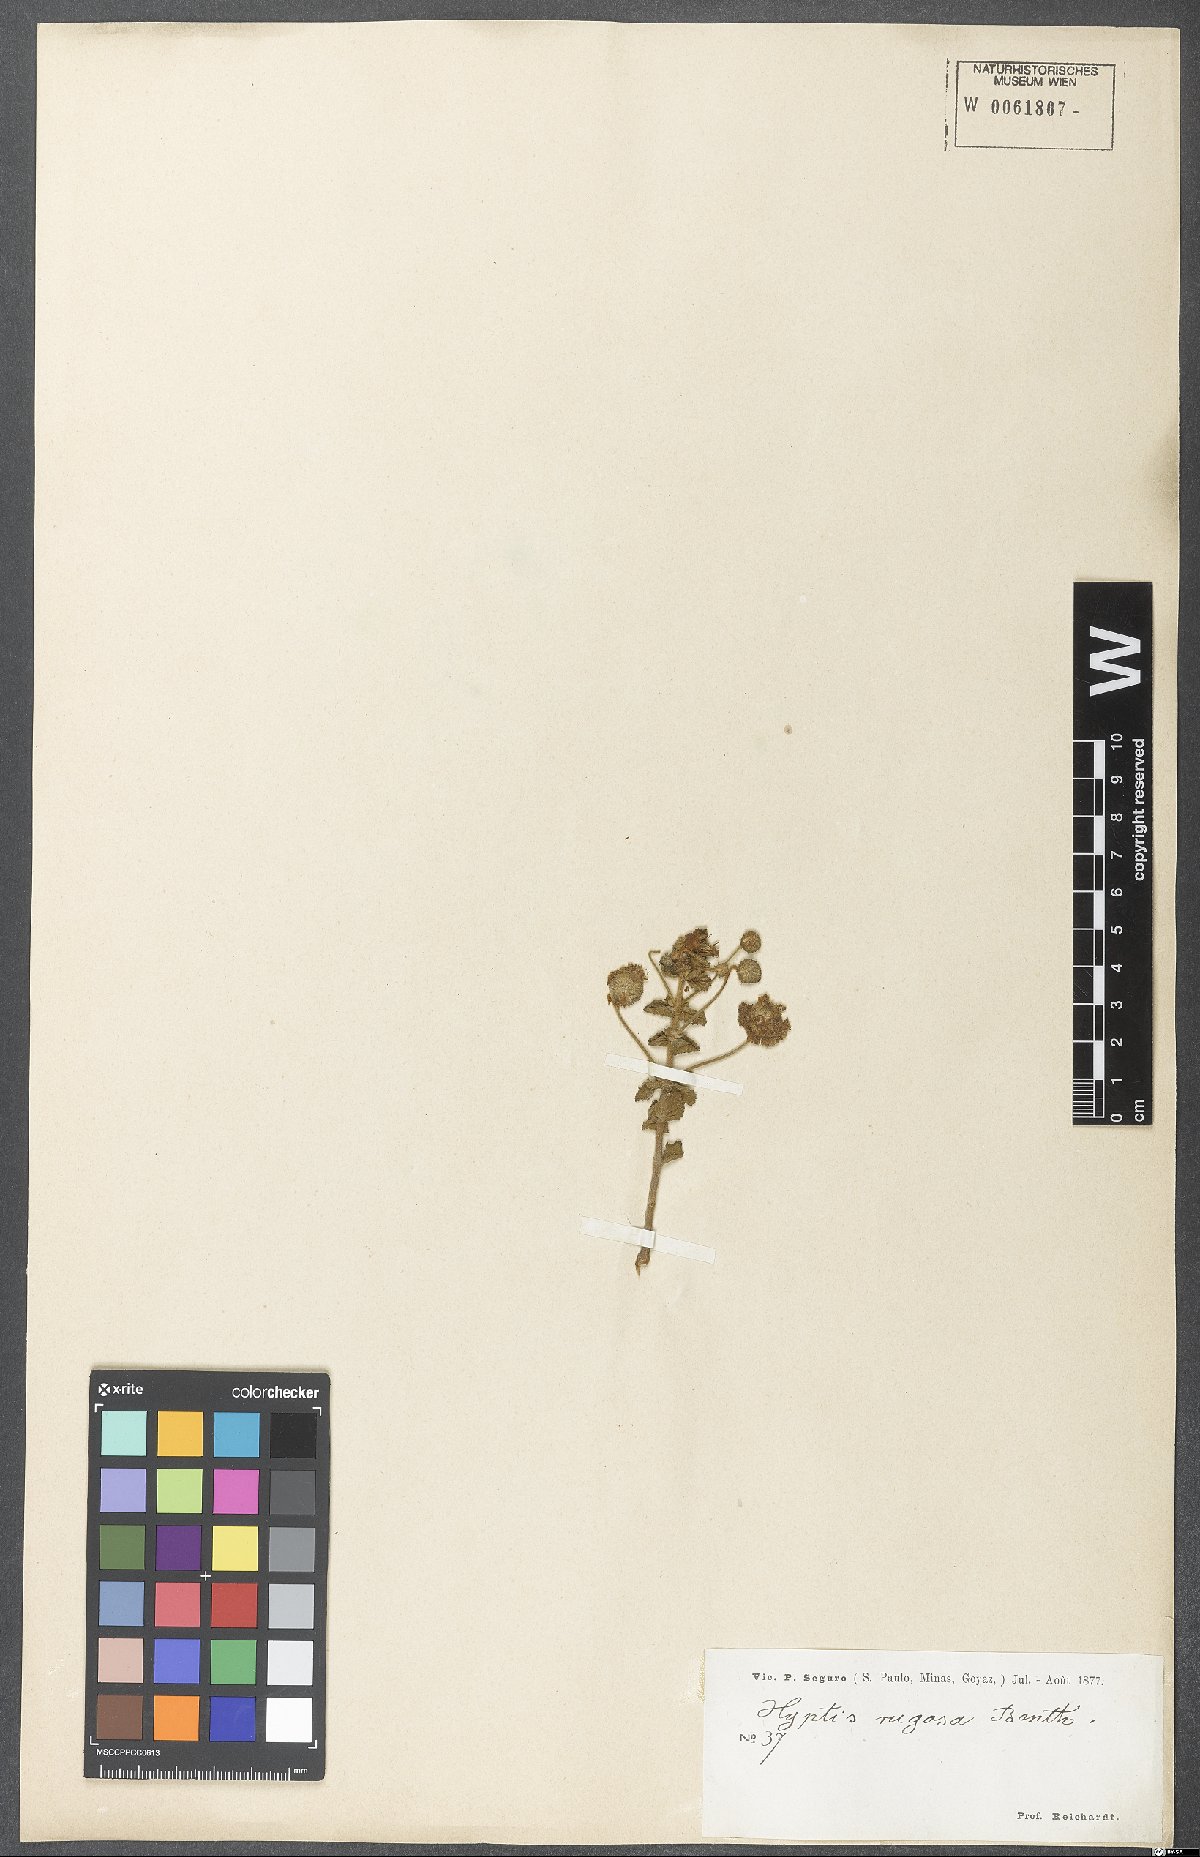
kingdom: Plantae
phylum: Tracheophyta
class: Magnoliopsida
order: Lamiales
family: Lamiaceae
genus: Cyanocephalus
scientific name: Cyanocephalus rugosus
